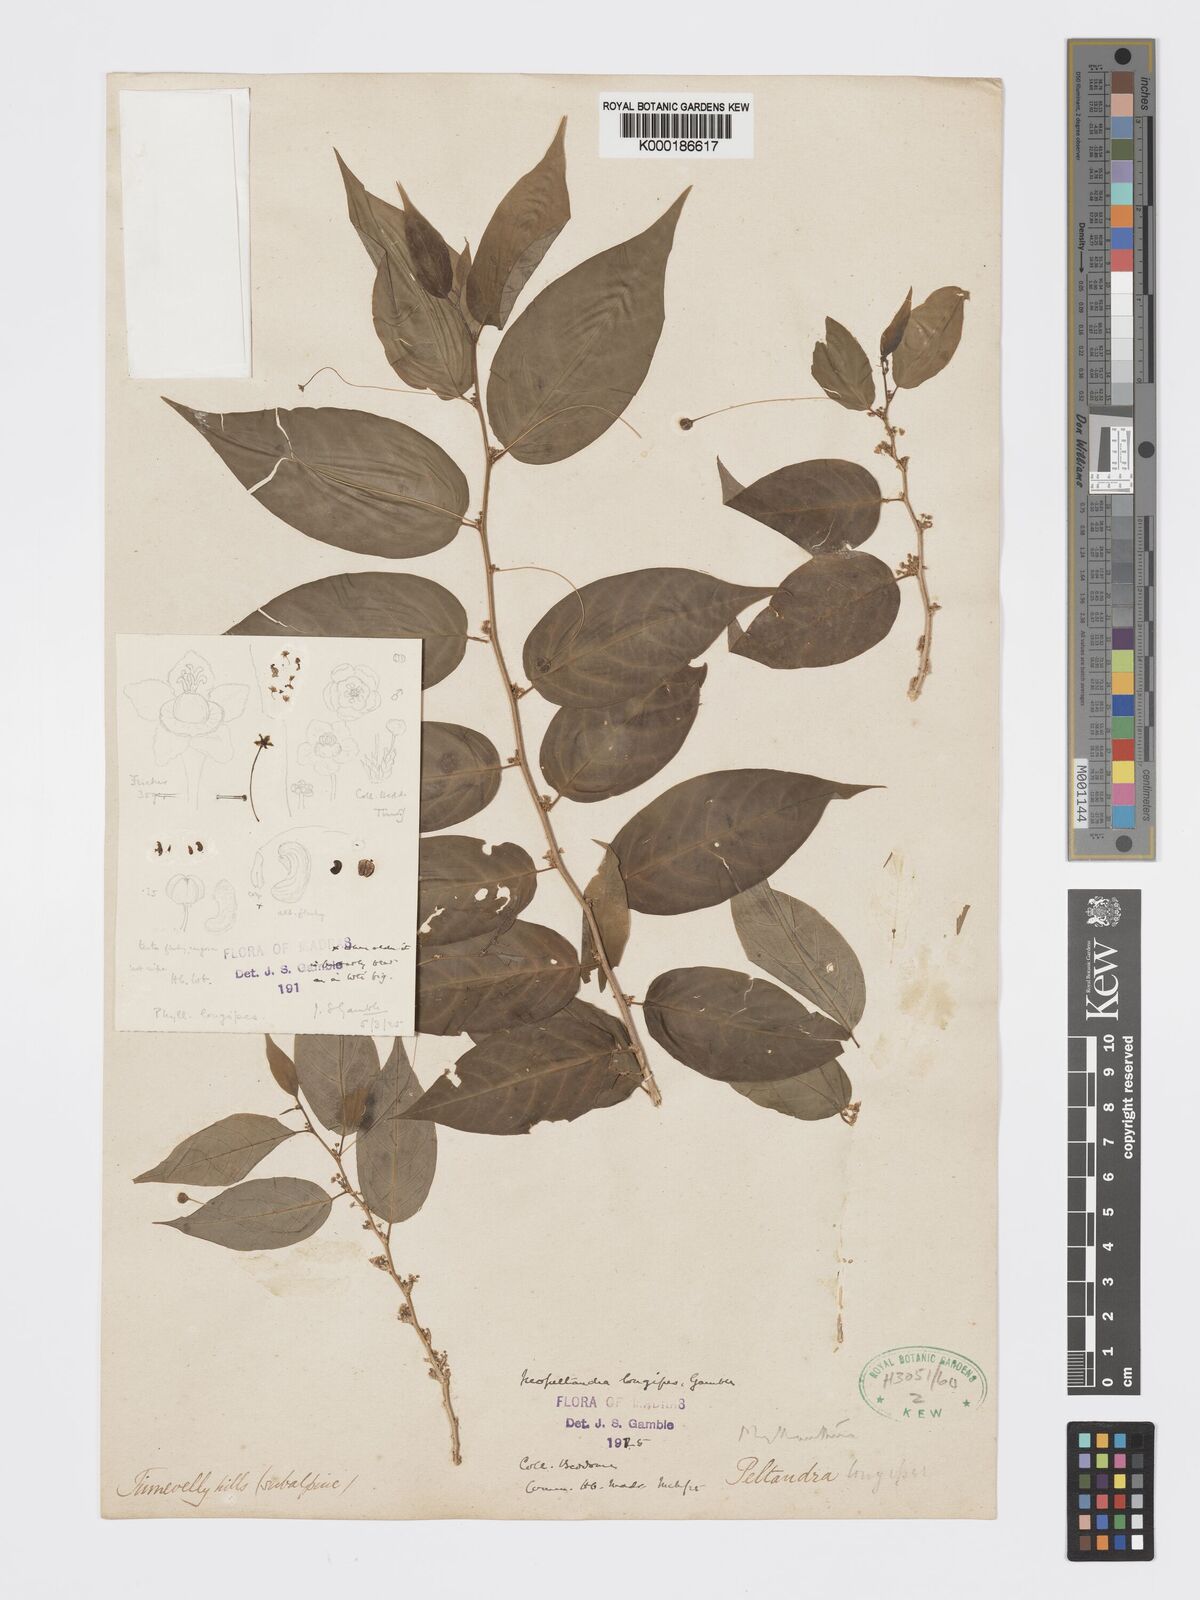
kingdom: Plantae
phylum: Tracheophyta
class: Magnoliopsida
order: Malpighiales
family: Phyllanthaceae
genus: Meineckia
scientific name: Meineckia longipes
